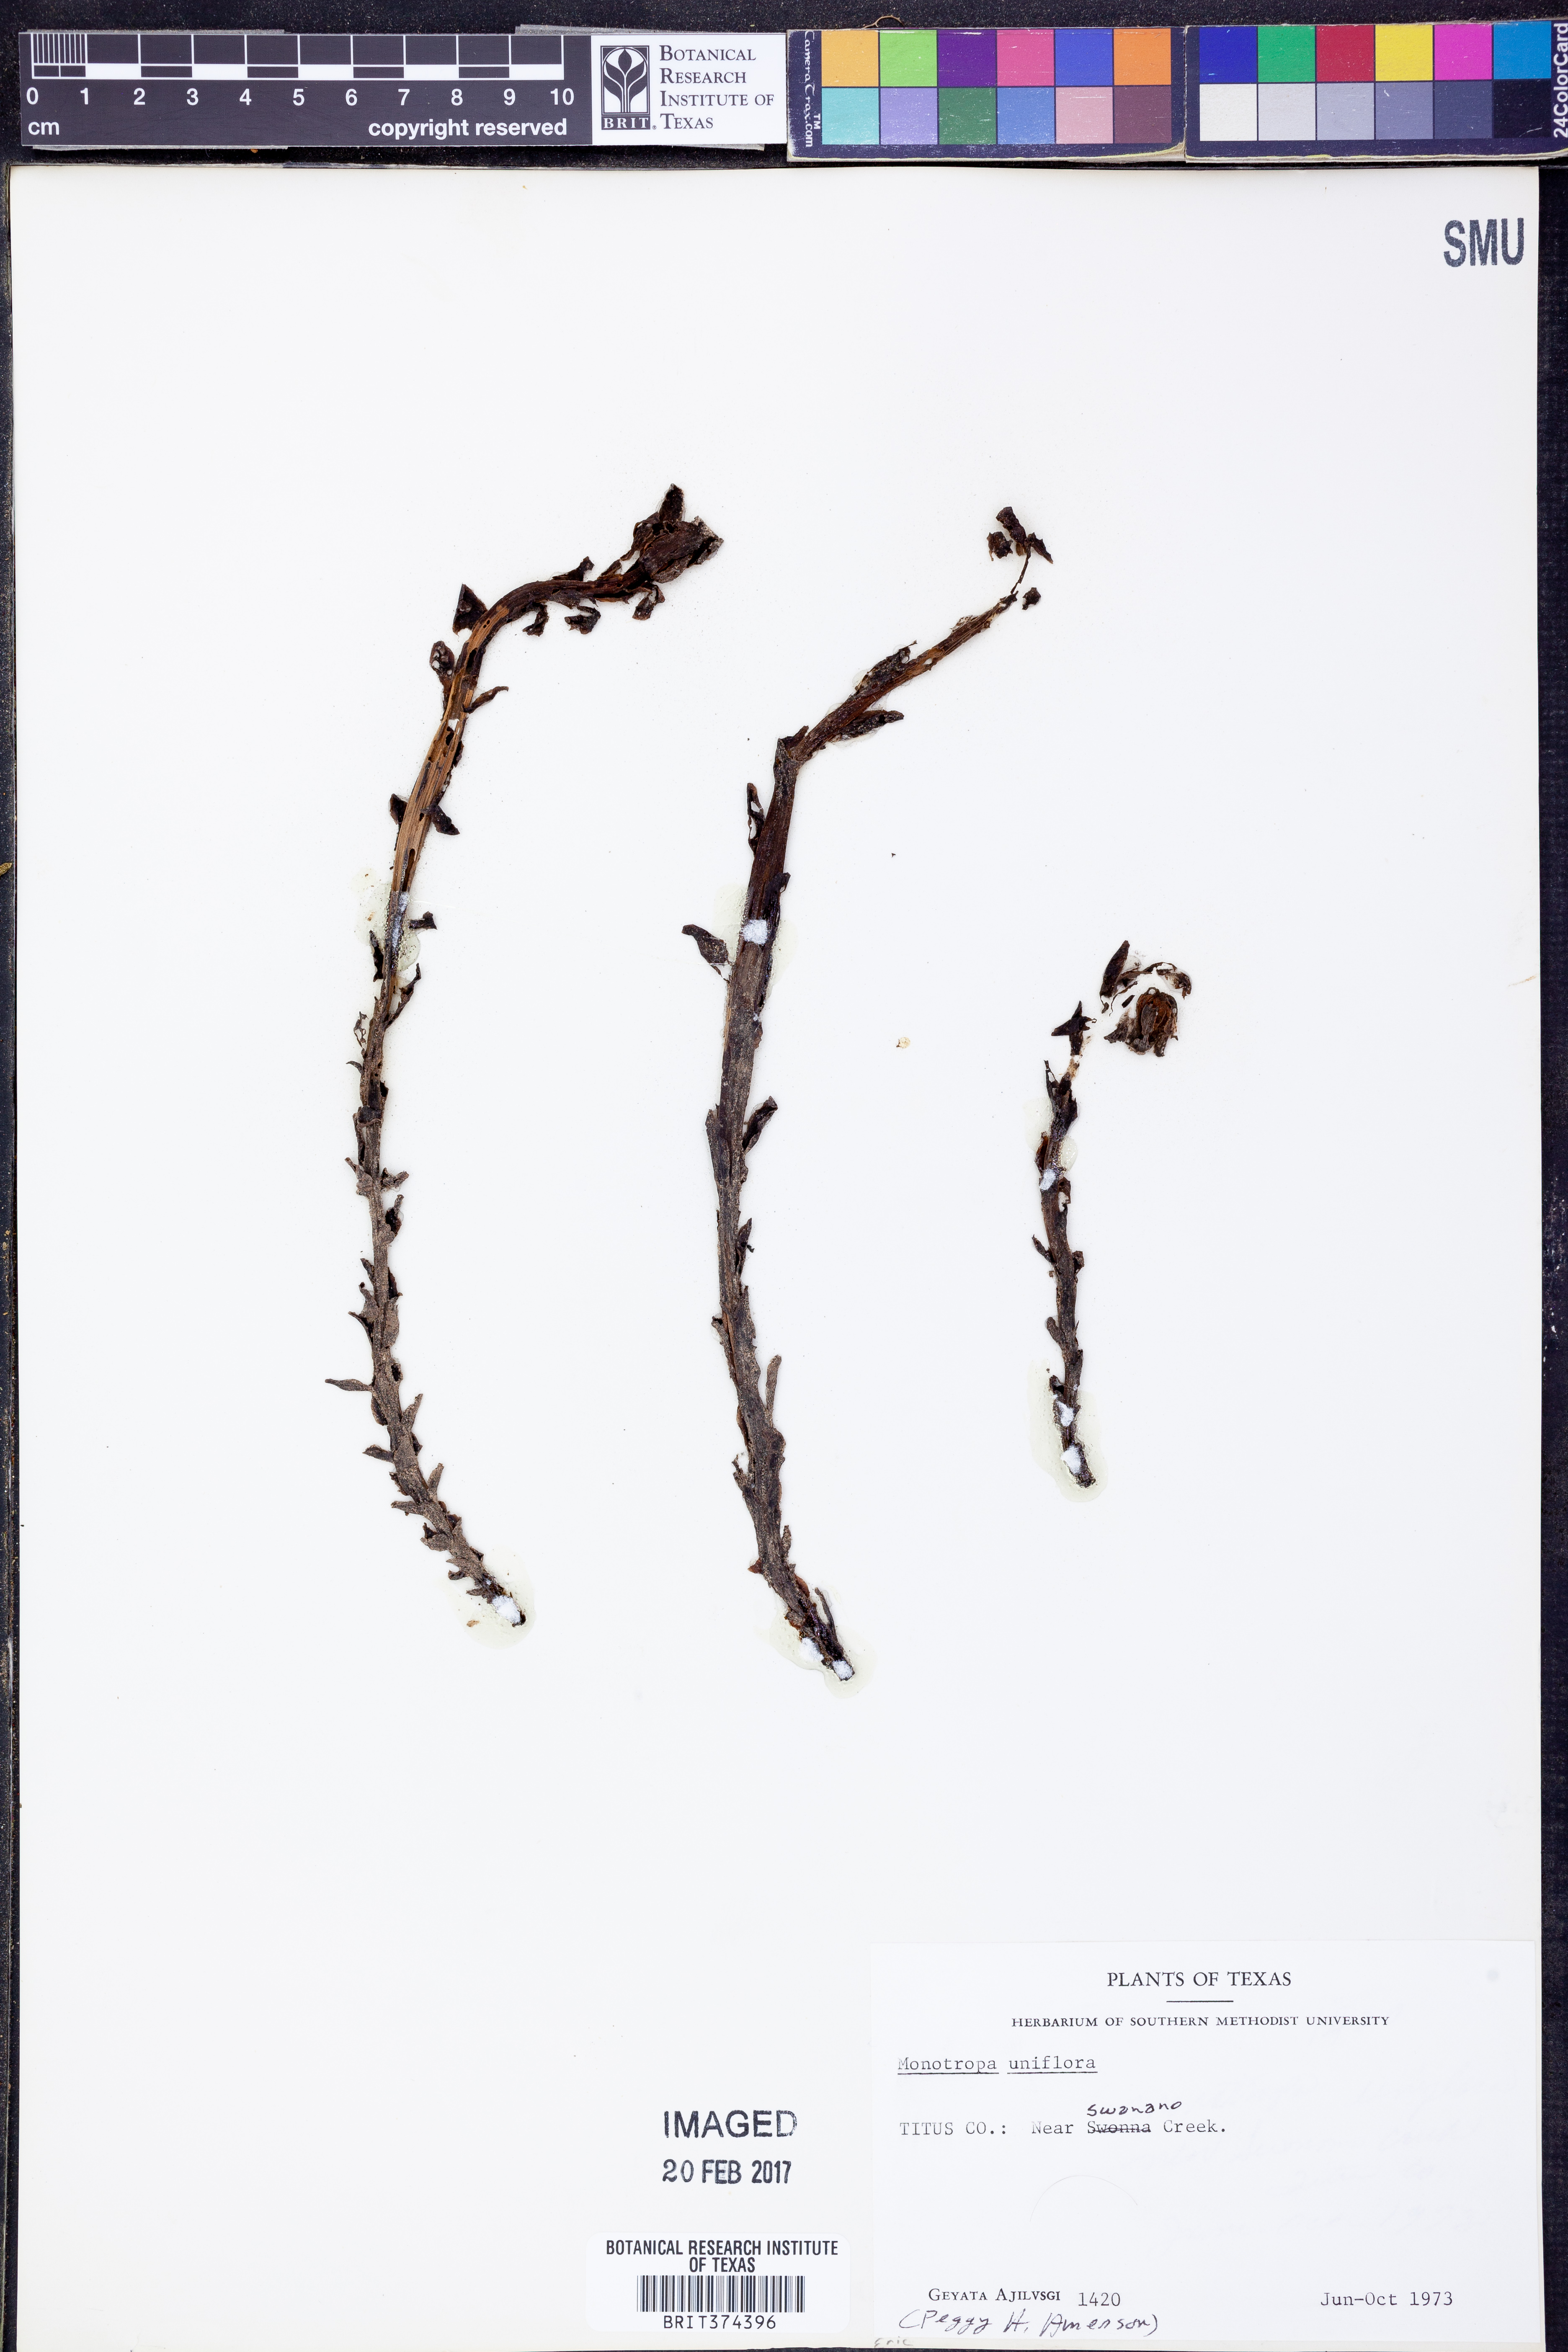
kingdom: Plantae
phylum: Tracheophyta
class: Magnoliopsida
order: Ericales
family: Ericaceae
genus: Monotropa
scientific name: Monotropa uniflora
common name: Convulsion root
